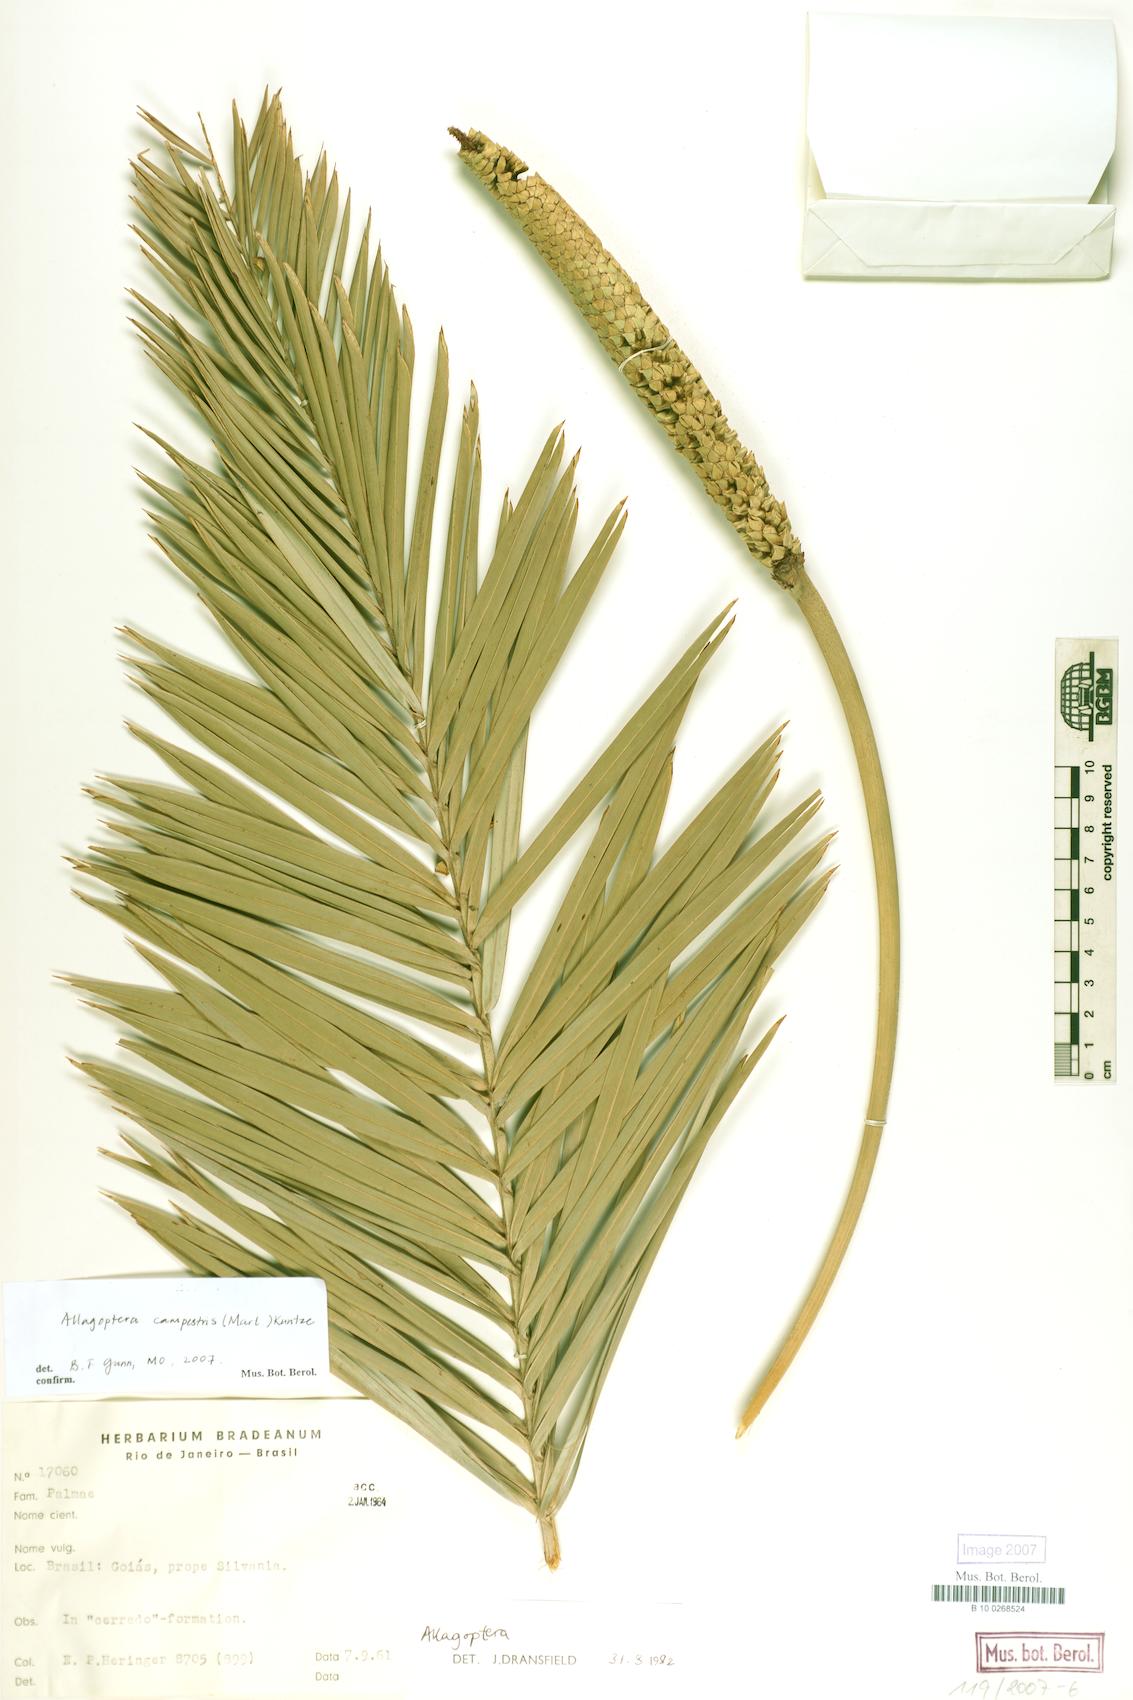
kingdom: Plantae
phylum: Tracheophyta
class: Liliopsida
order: Arecales
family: Arecaceae
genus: Allagoptera
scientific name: Allagoptera campestris
